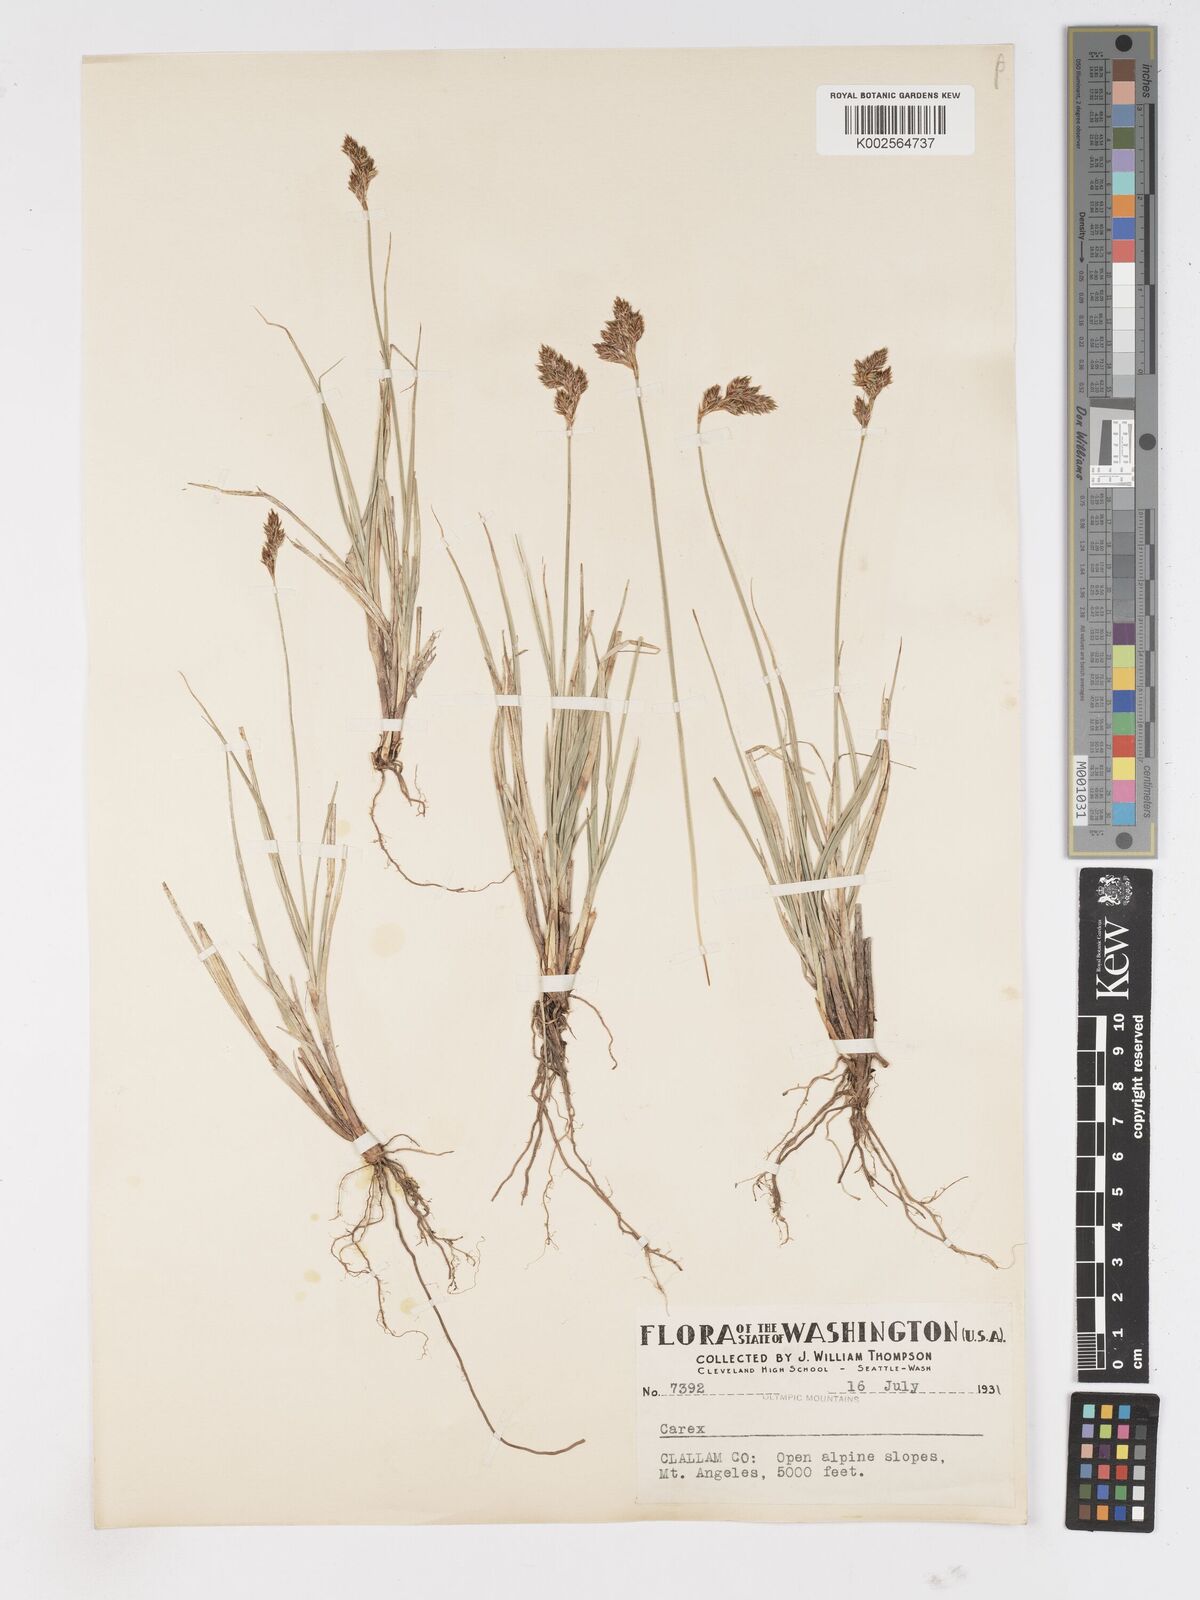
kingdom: Plantae
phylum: Tracheophyta
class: Liliopsida
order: Poales
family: Cyperaceae
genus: Carex
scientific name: Carex
